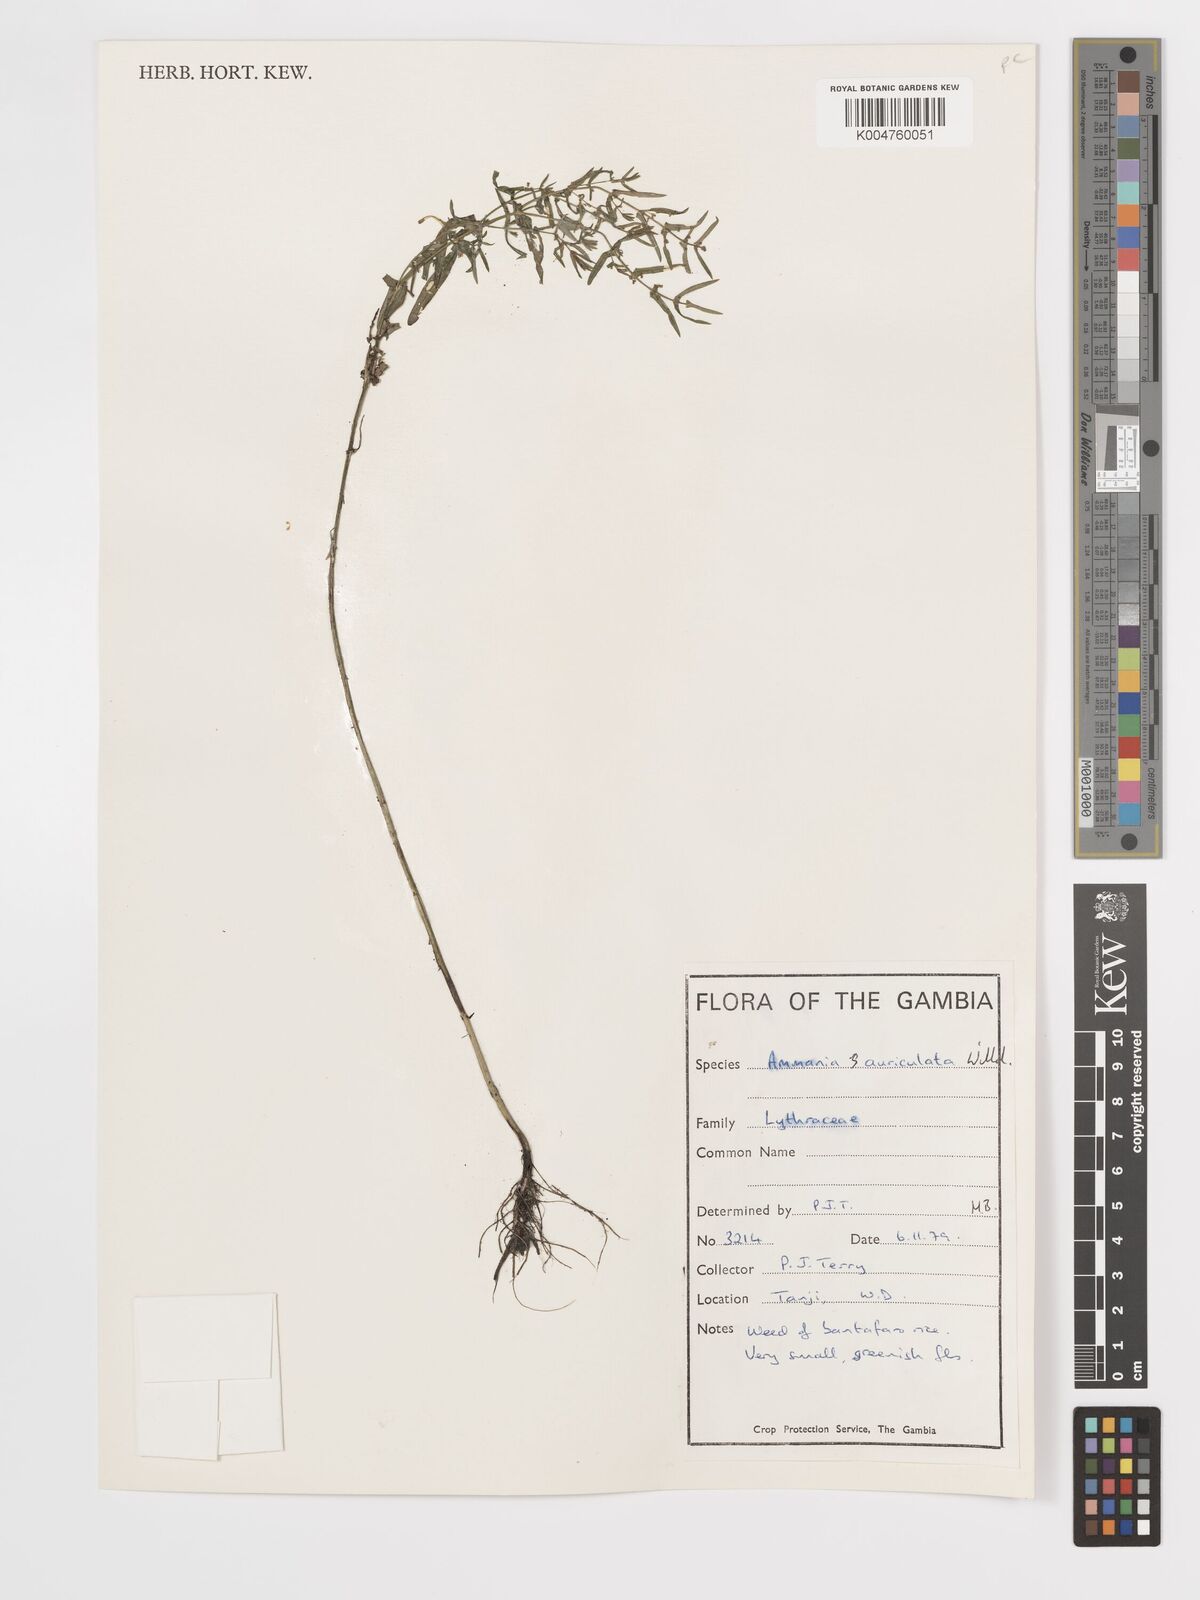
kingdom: Plantae
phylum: Tracheophyta
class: Magnoliopsida
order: Myrtales
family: Lythraceae
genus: Ammannia
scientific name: Ammannia auriculata
